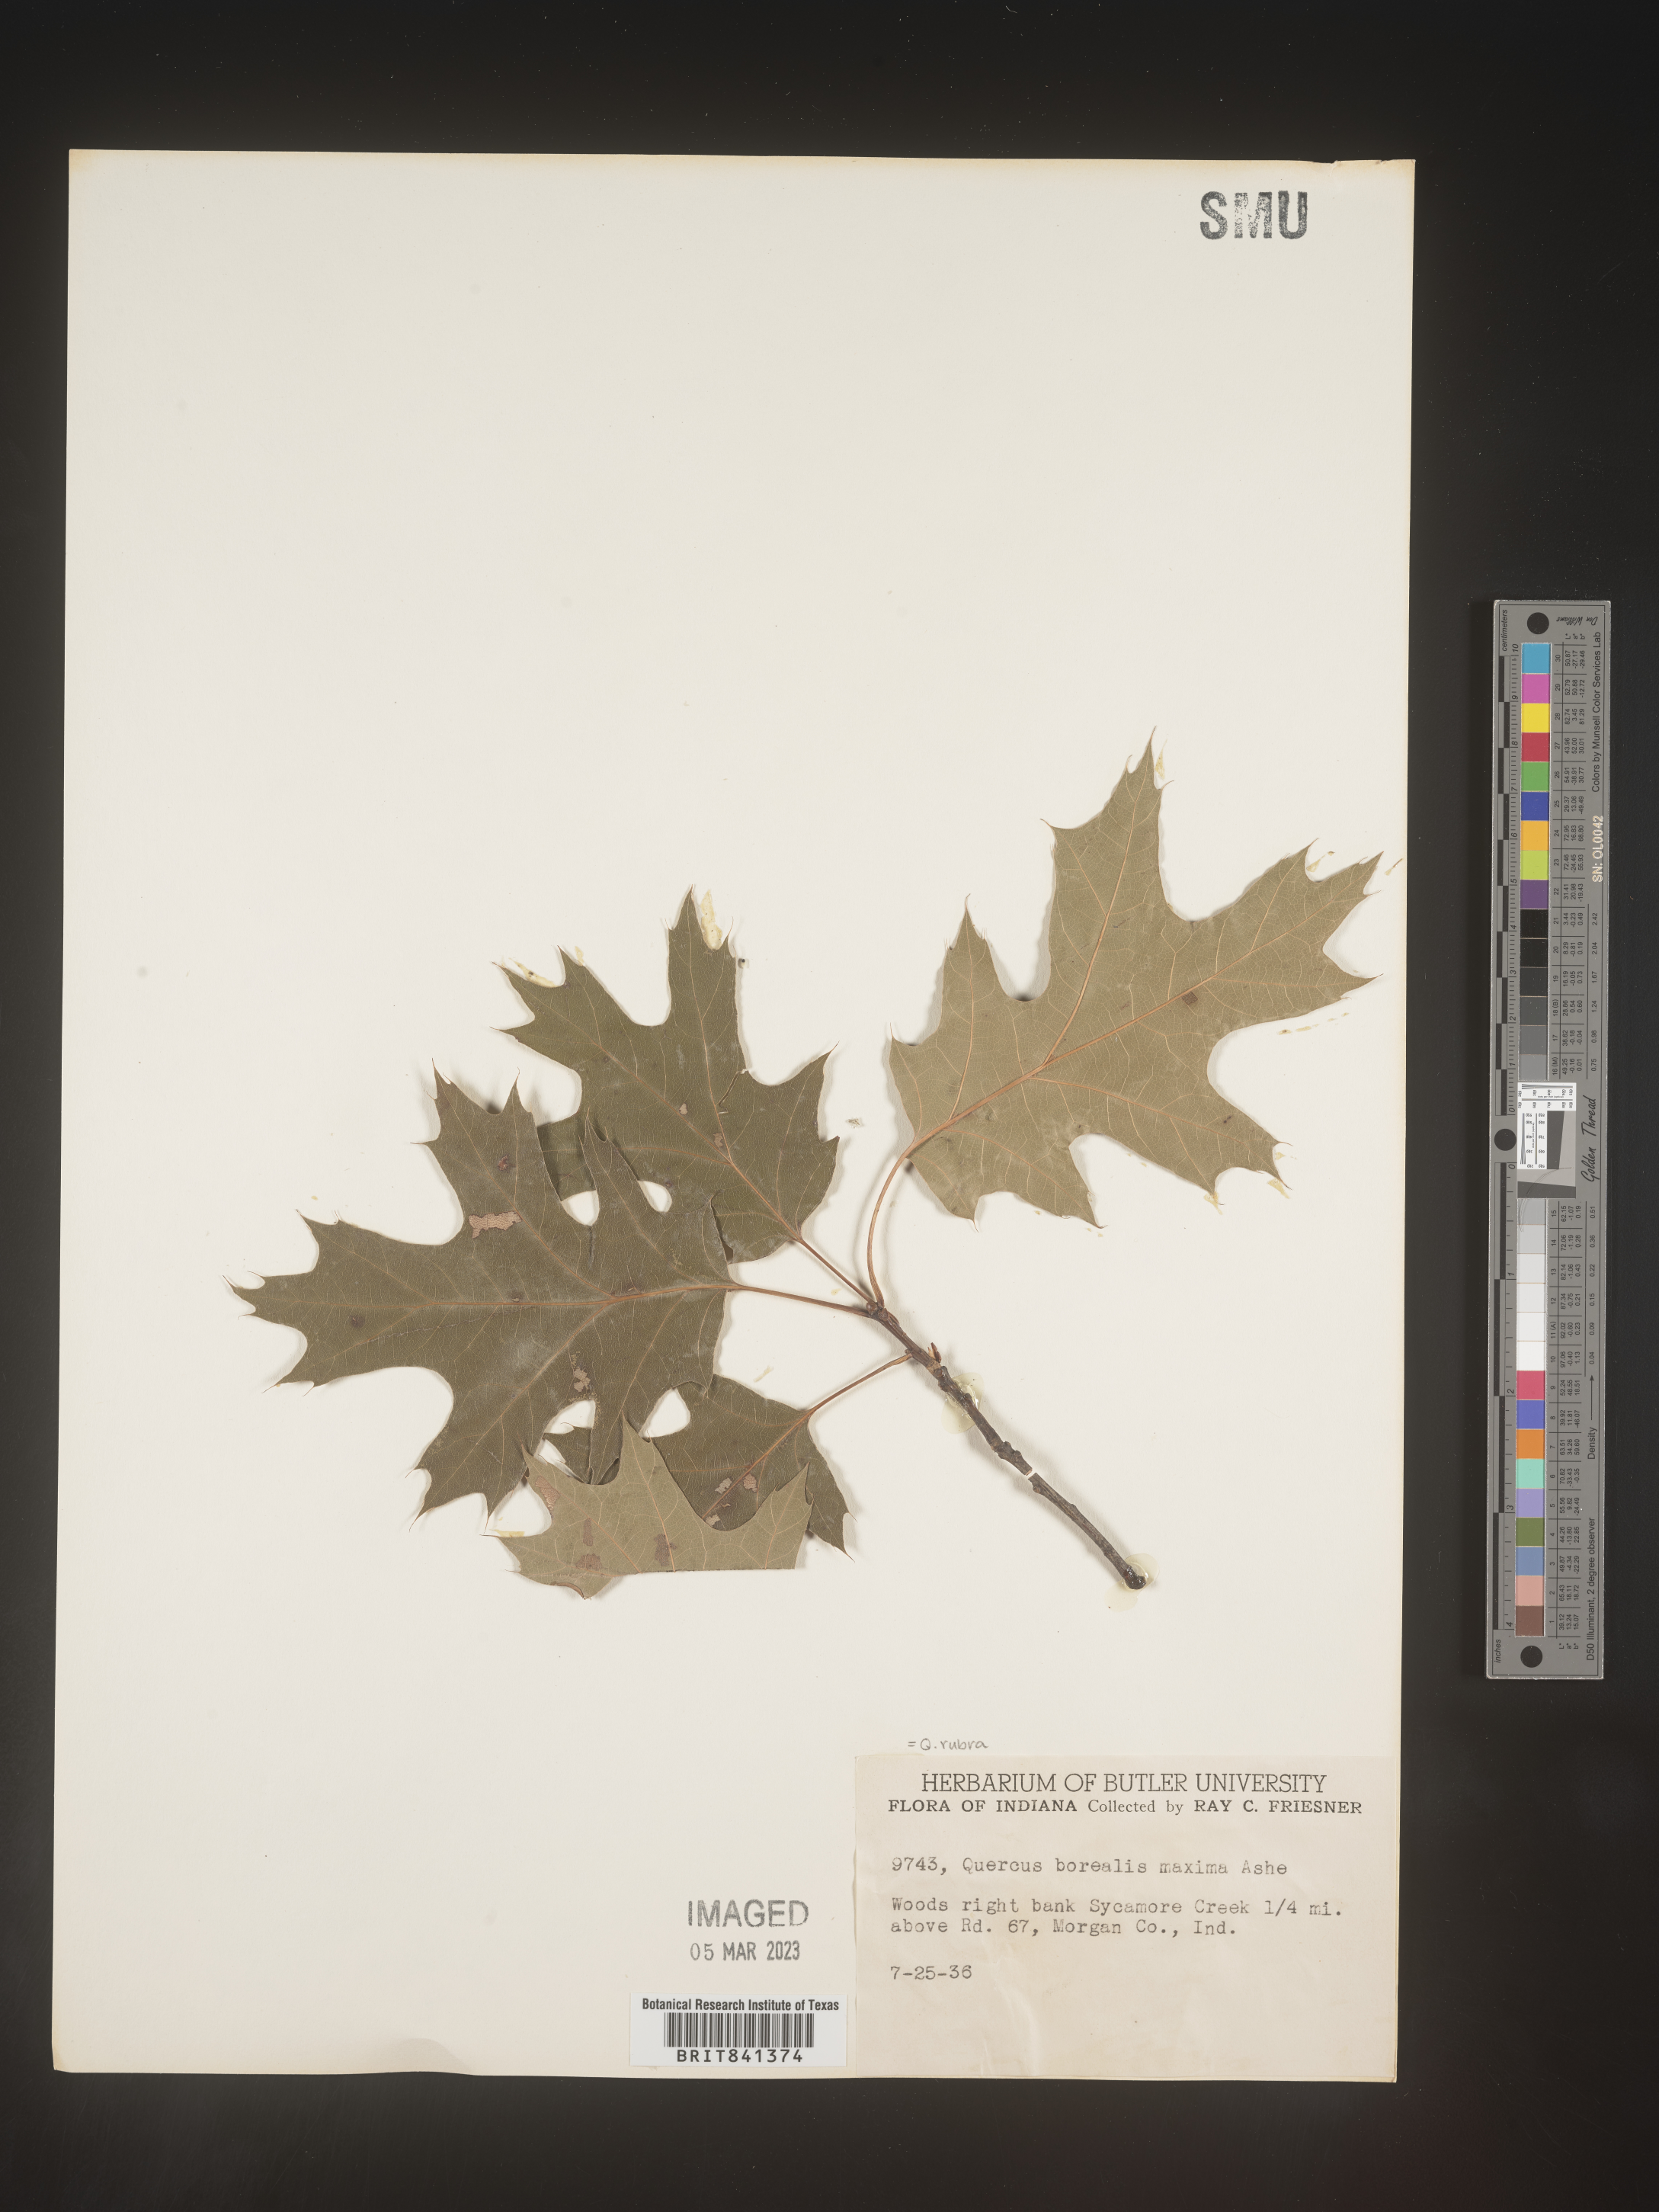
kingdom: Plantae
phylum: Tracheophyta
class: Magnoliopsida
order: Fagales
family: Fagaceae
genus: Quercus
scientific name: Quercus rubra
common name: Red oak
